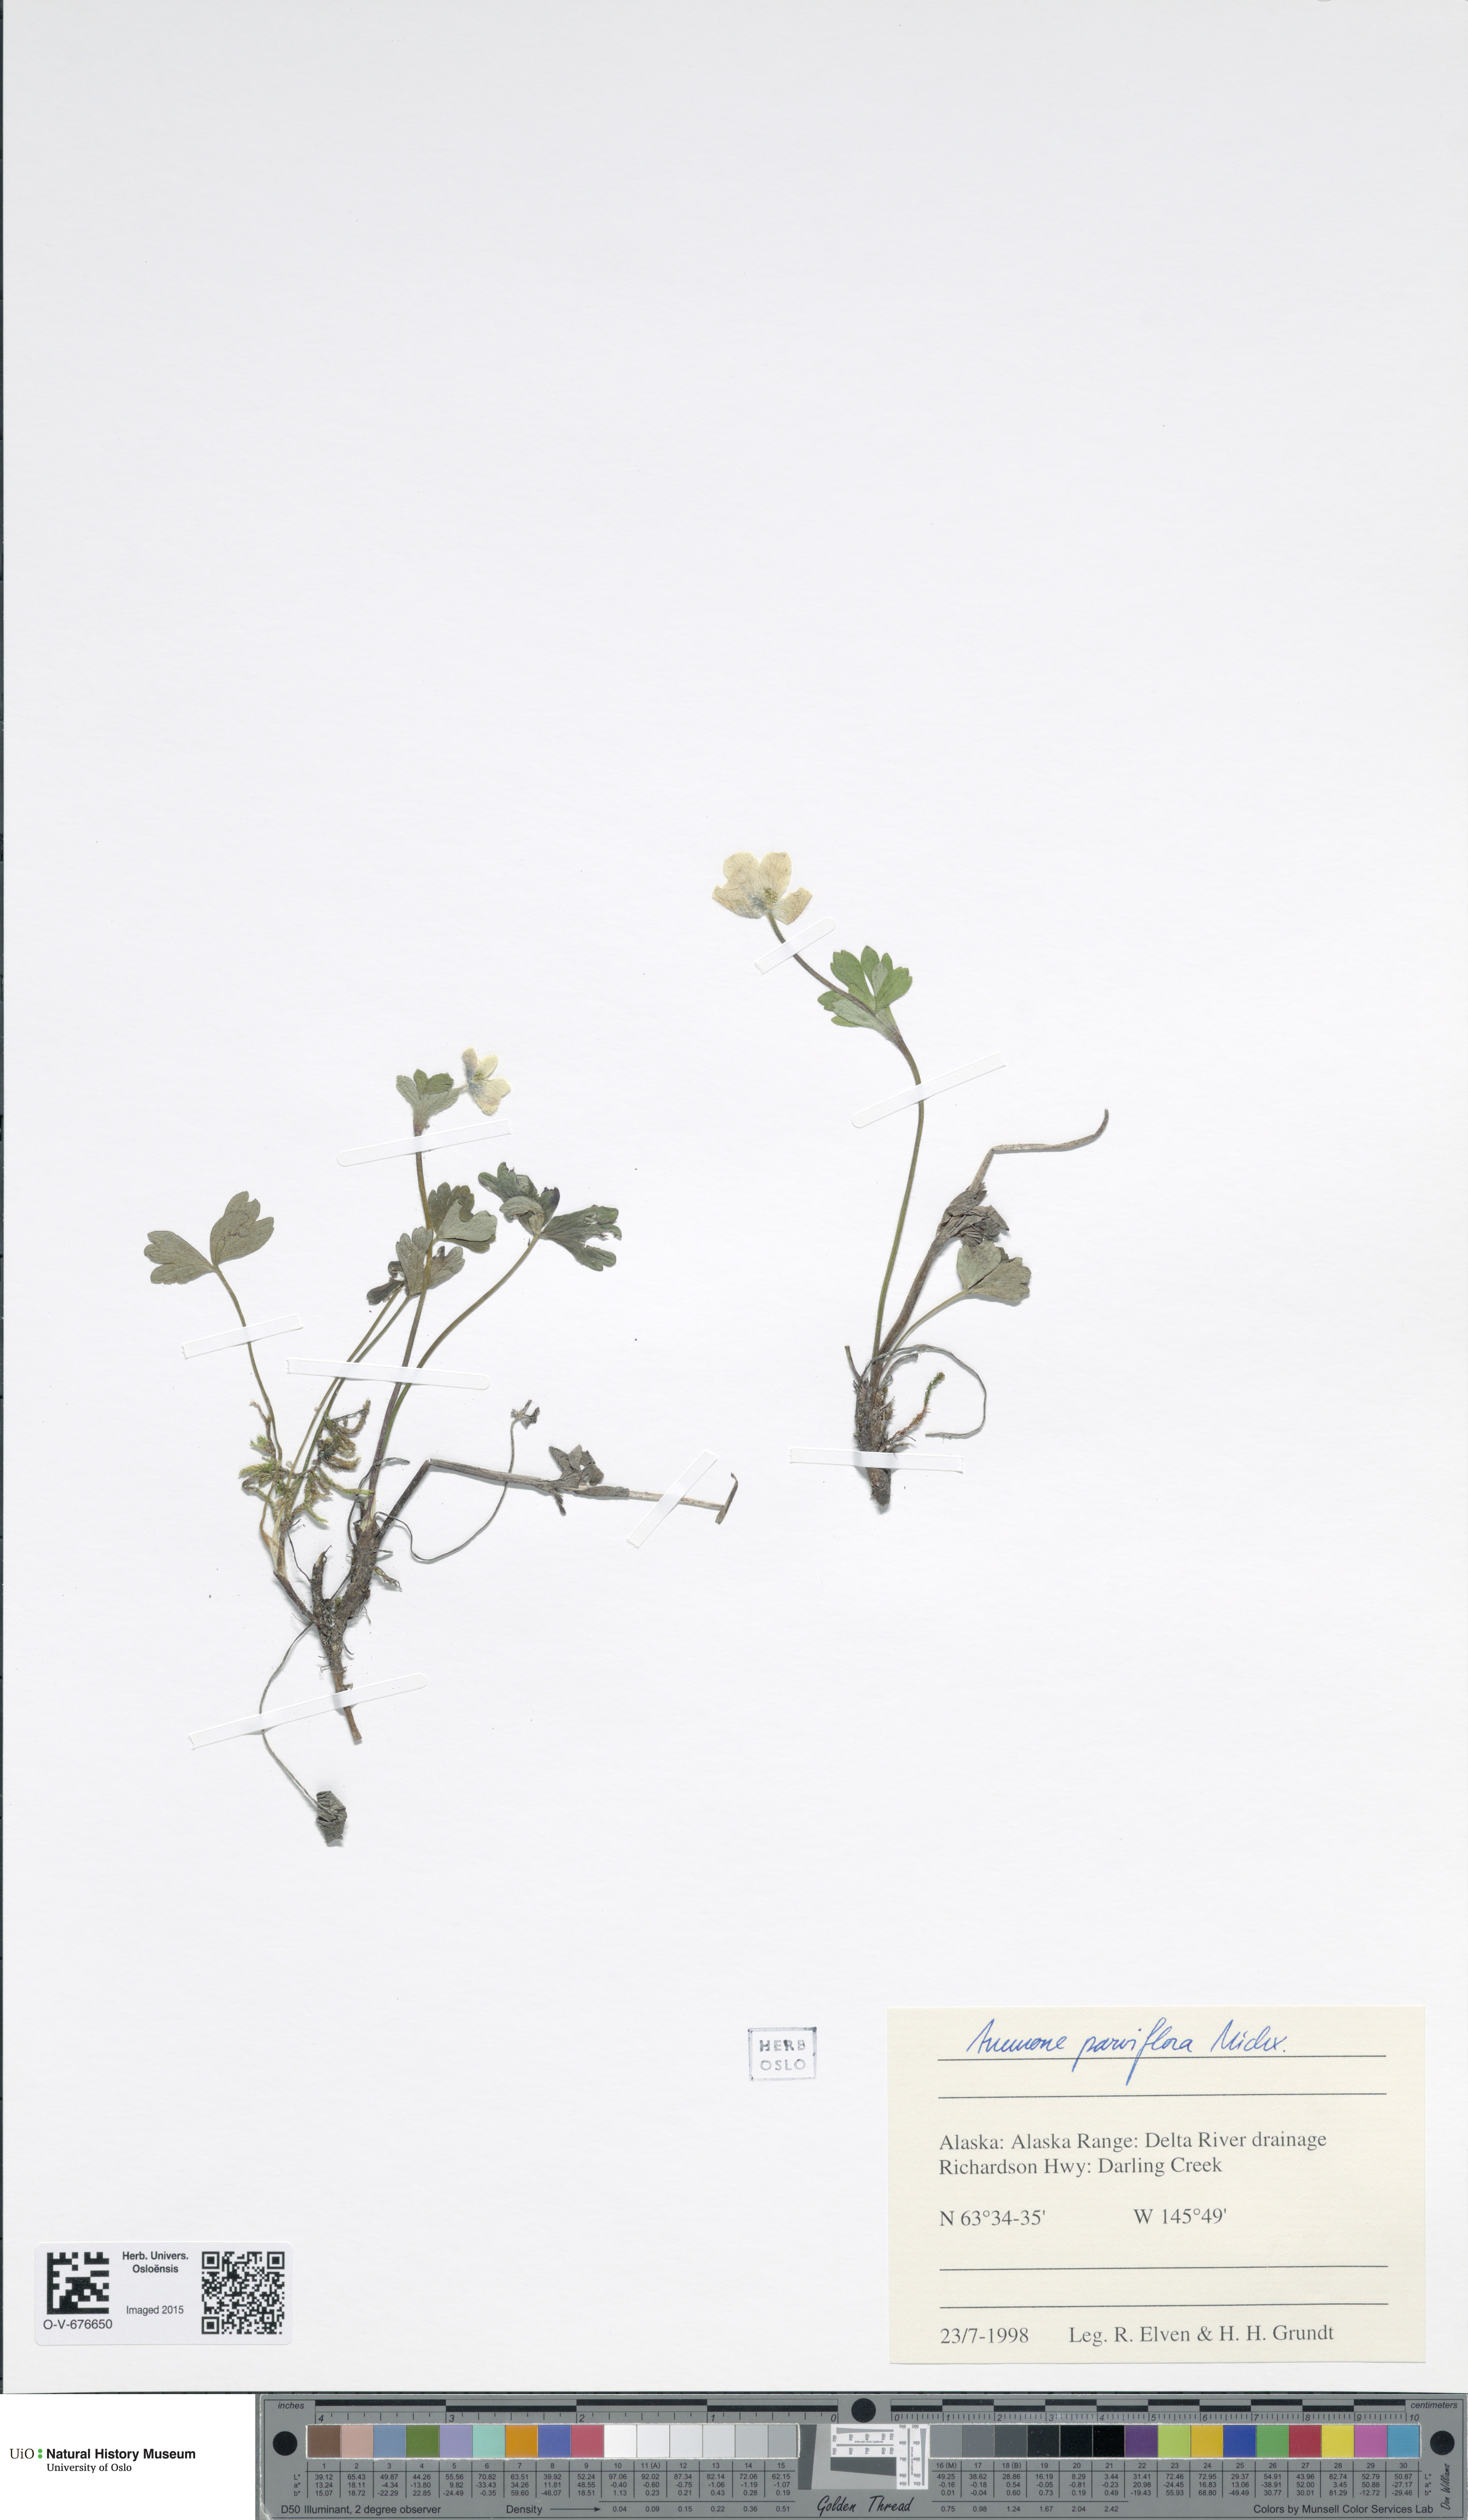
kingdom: Plantae
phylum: Tracheophyta
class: Magnoliopsida
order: Ranunculales
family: Ranunculaceae
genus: Anemone
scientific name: Anemone parviflora
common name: Northern anemone
